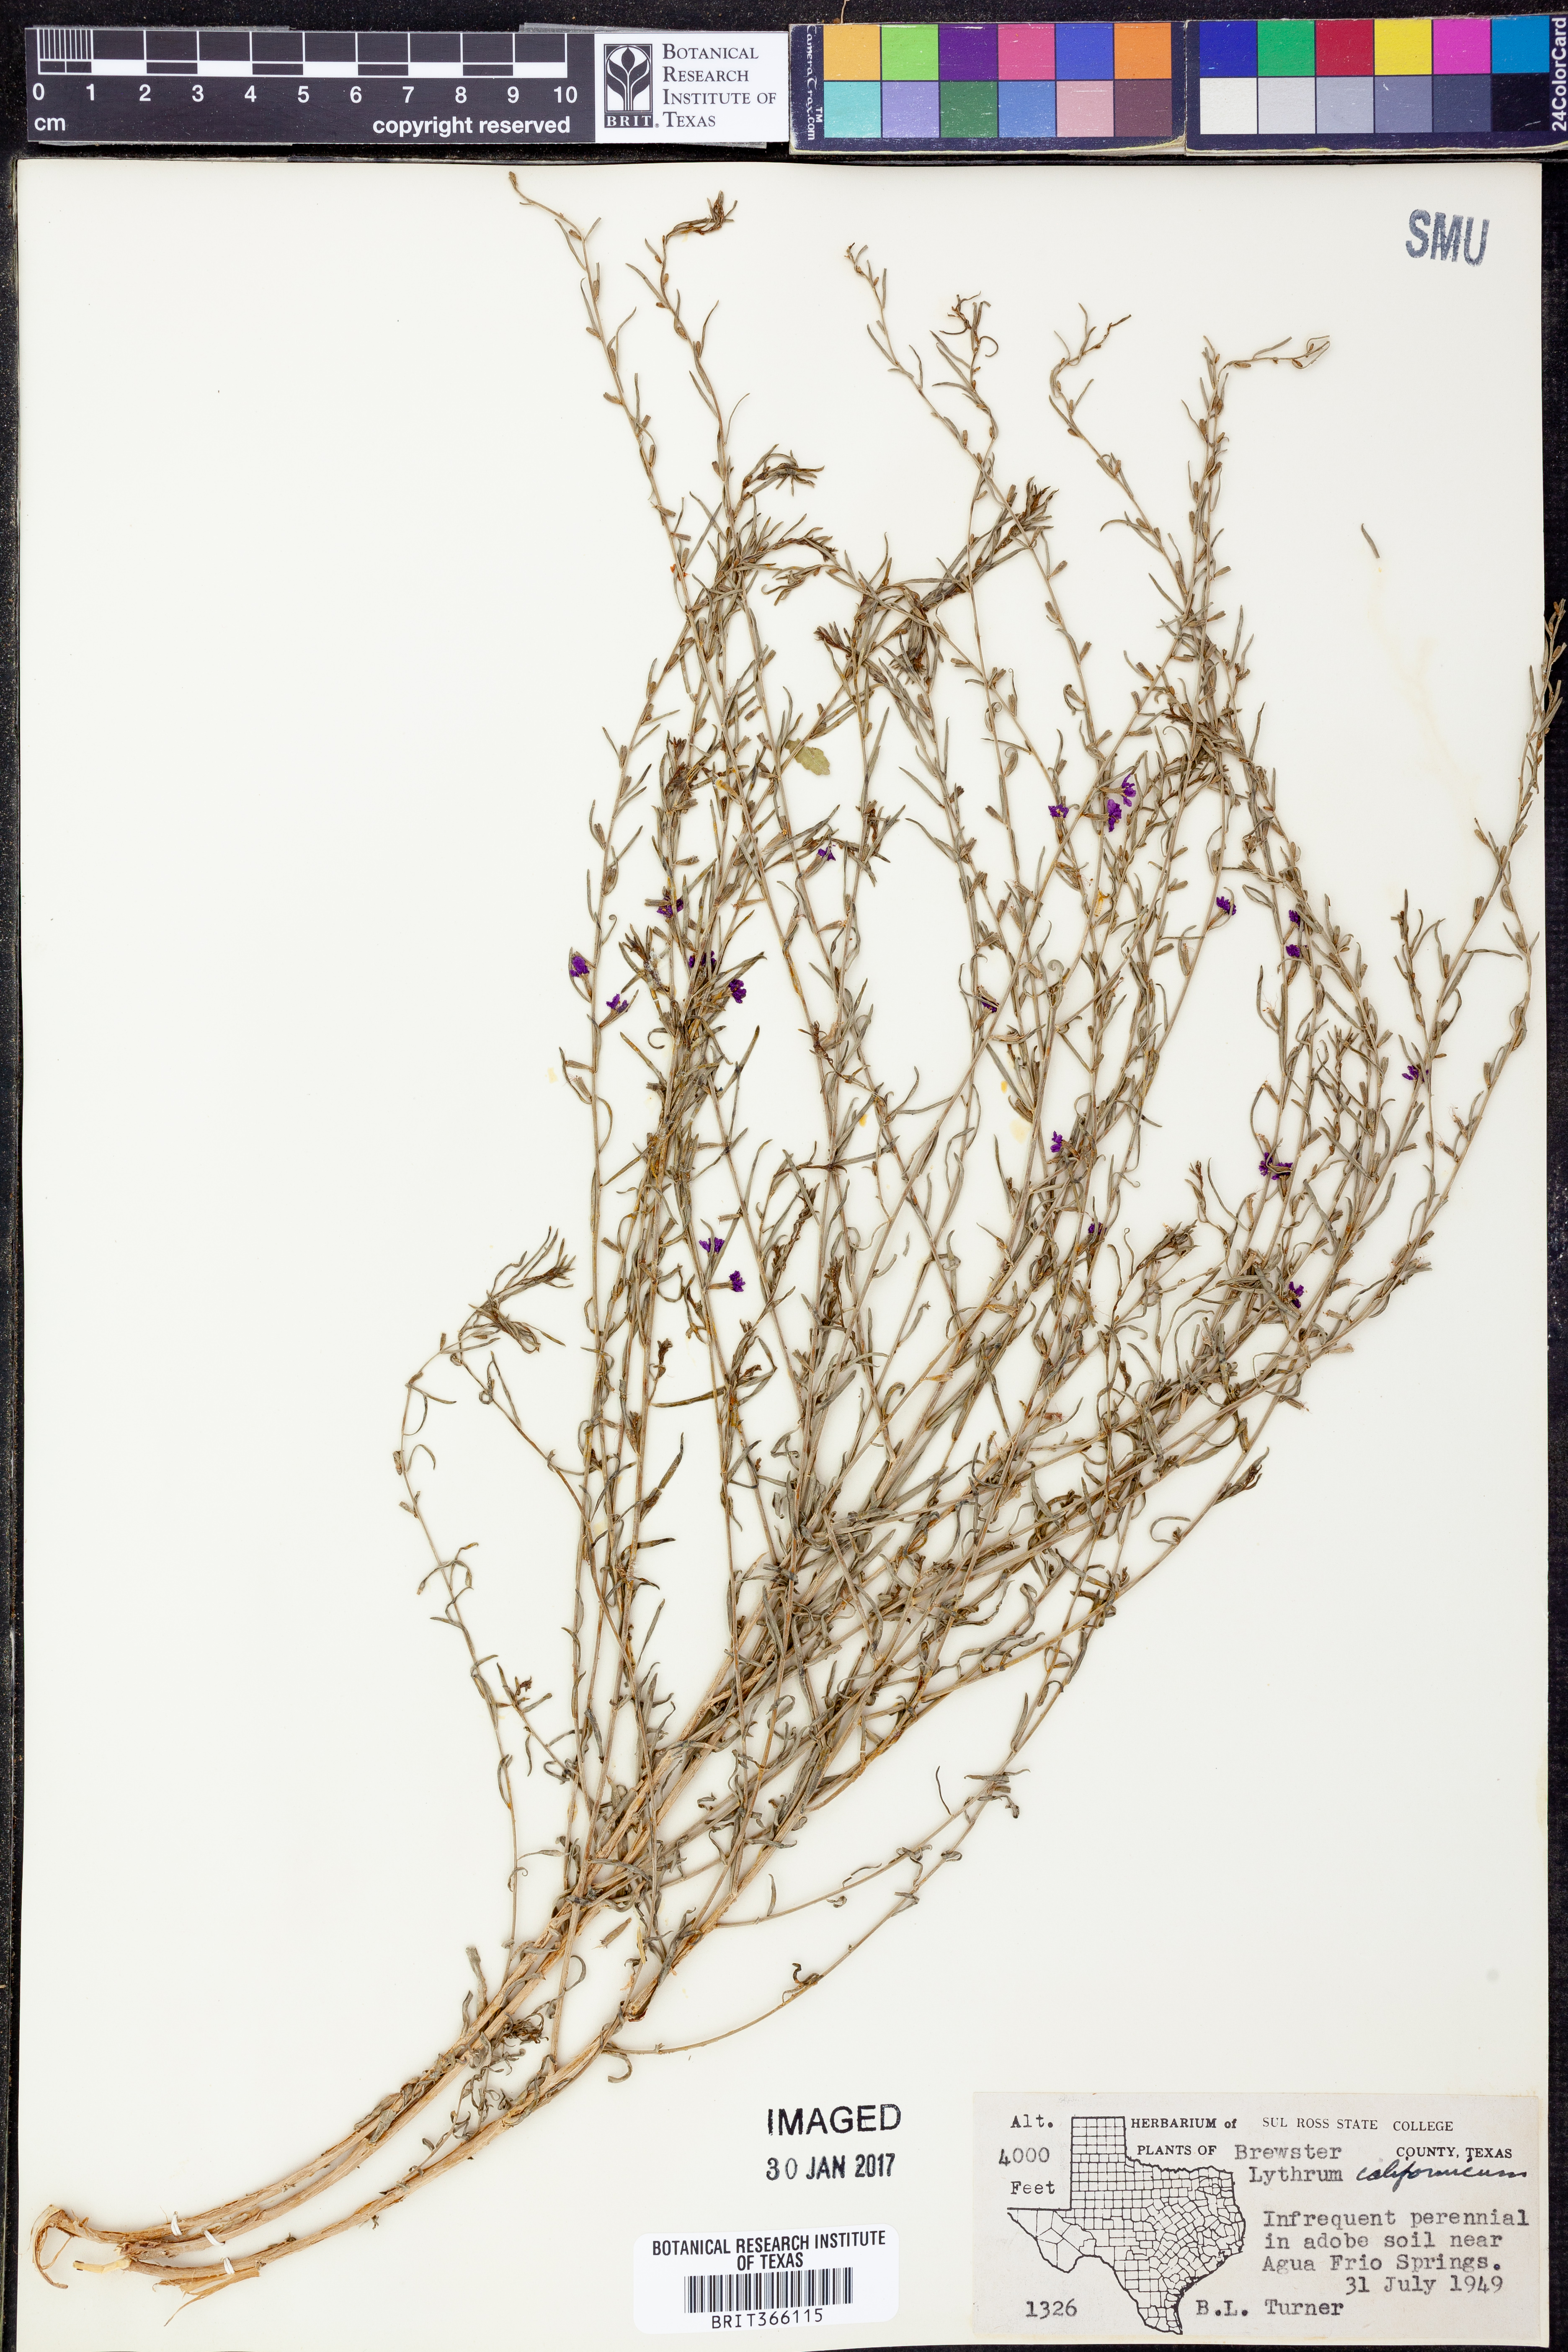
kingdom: Plantae
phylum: Tracheophyta
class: Magnoliopsida
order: Myrtales
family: Lythraceae
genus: Lythrum
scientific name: Lythrum californicum
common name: California loosestrife
